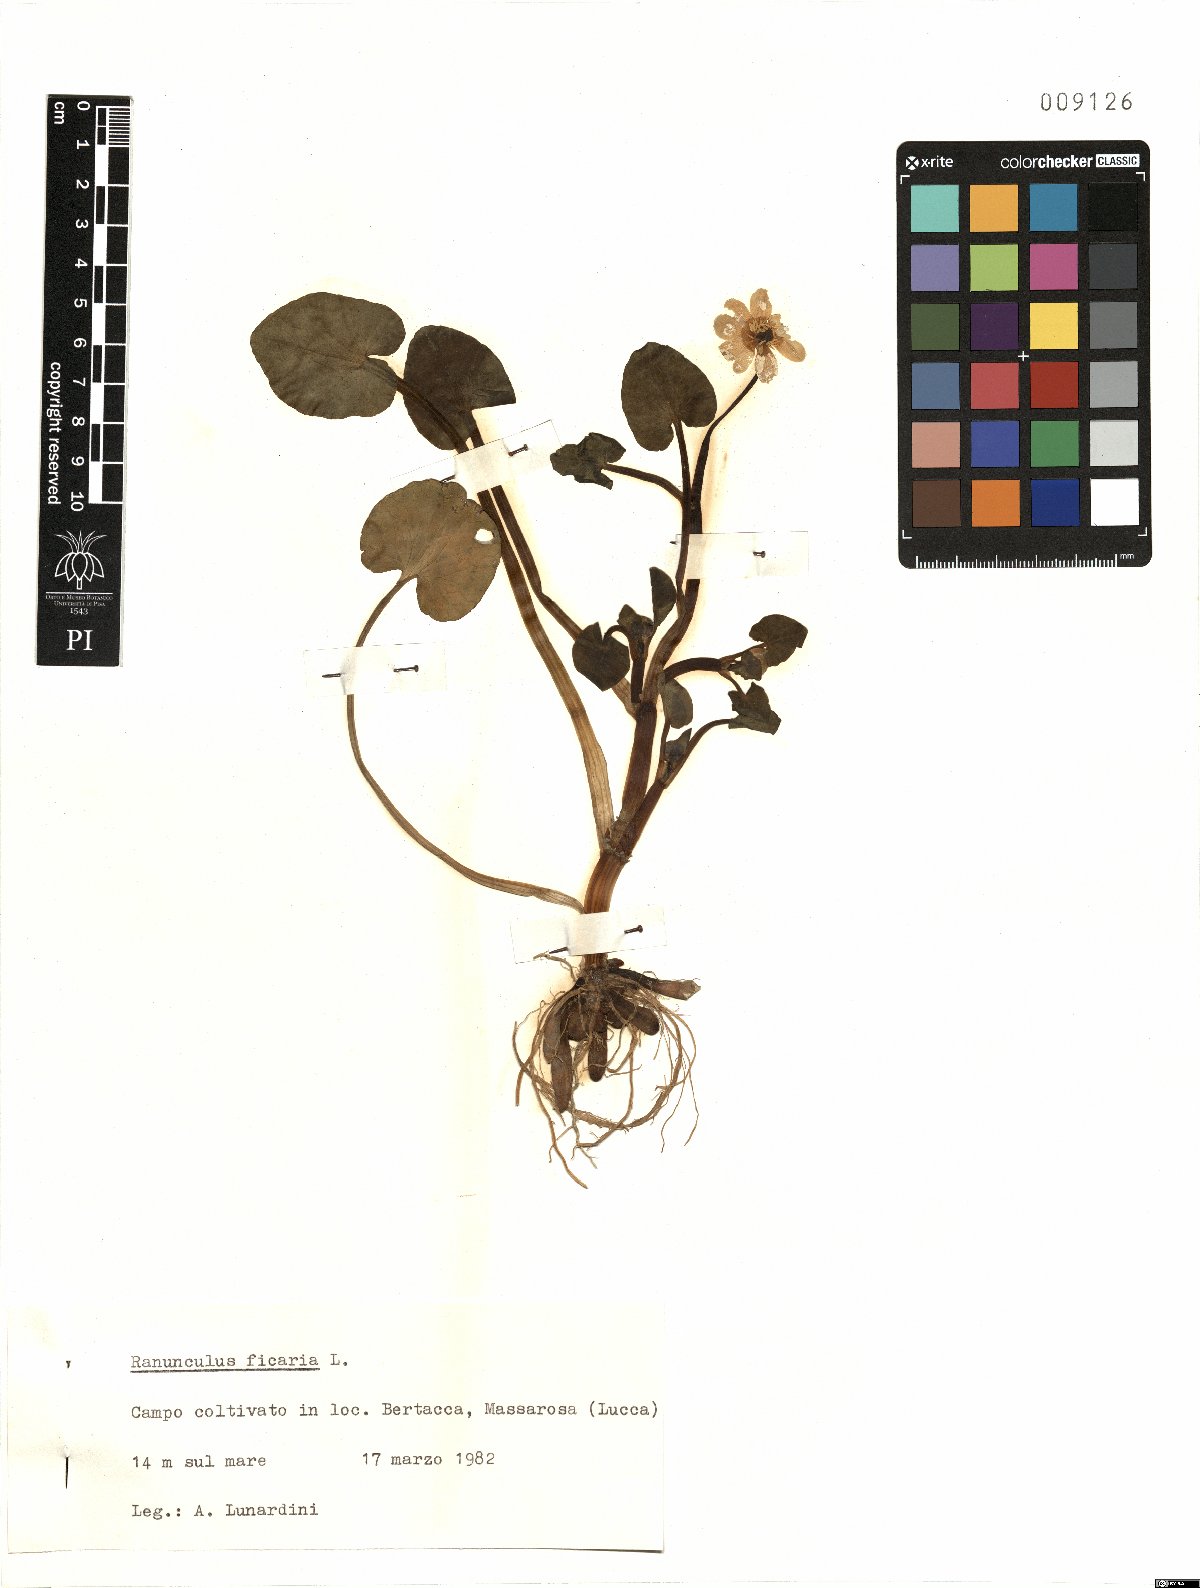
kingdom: Plantae
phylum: Tracheophyta
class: Magnoliopsida
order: Ranunculales
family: Ranunculaceae
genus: Ficaria
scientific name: Ficaria verna
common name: Lesser celandine
